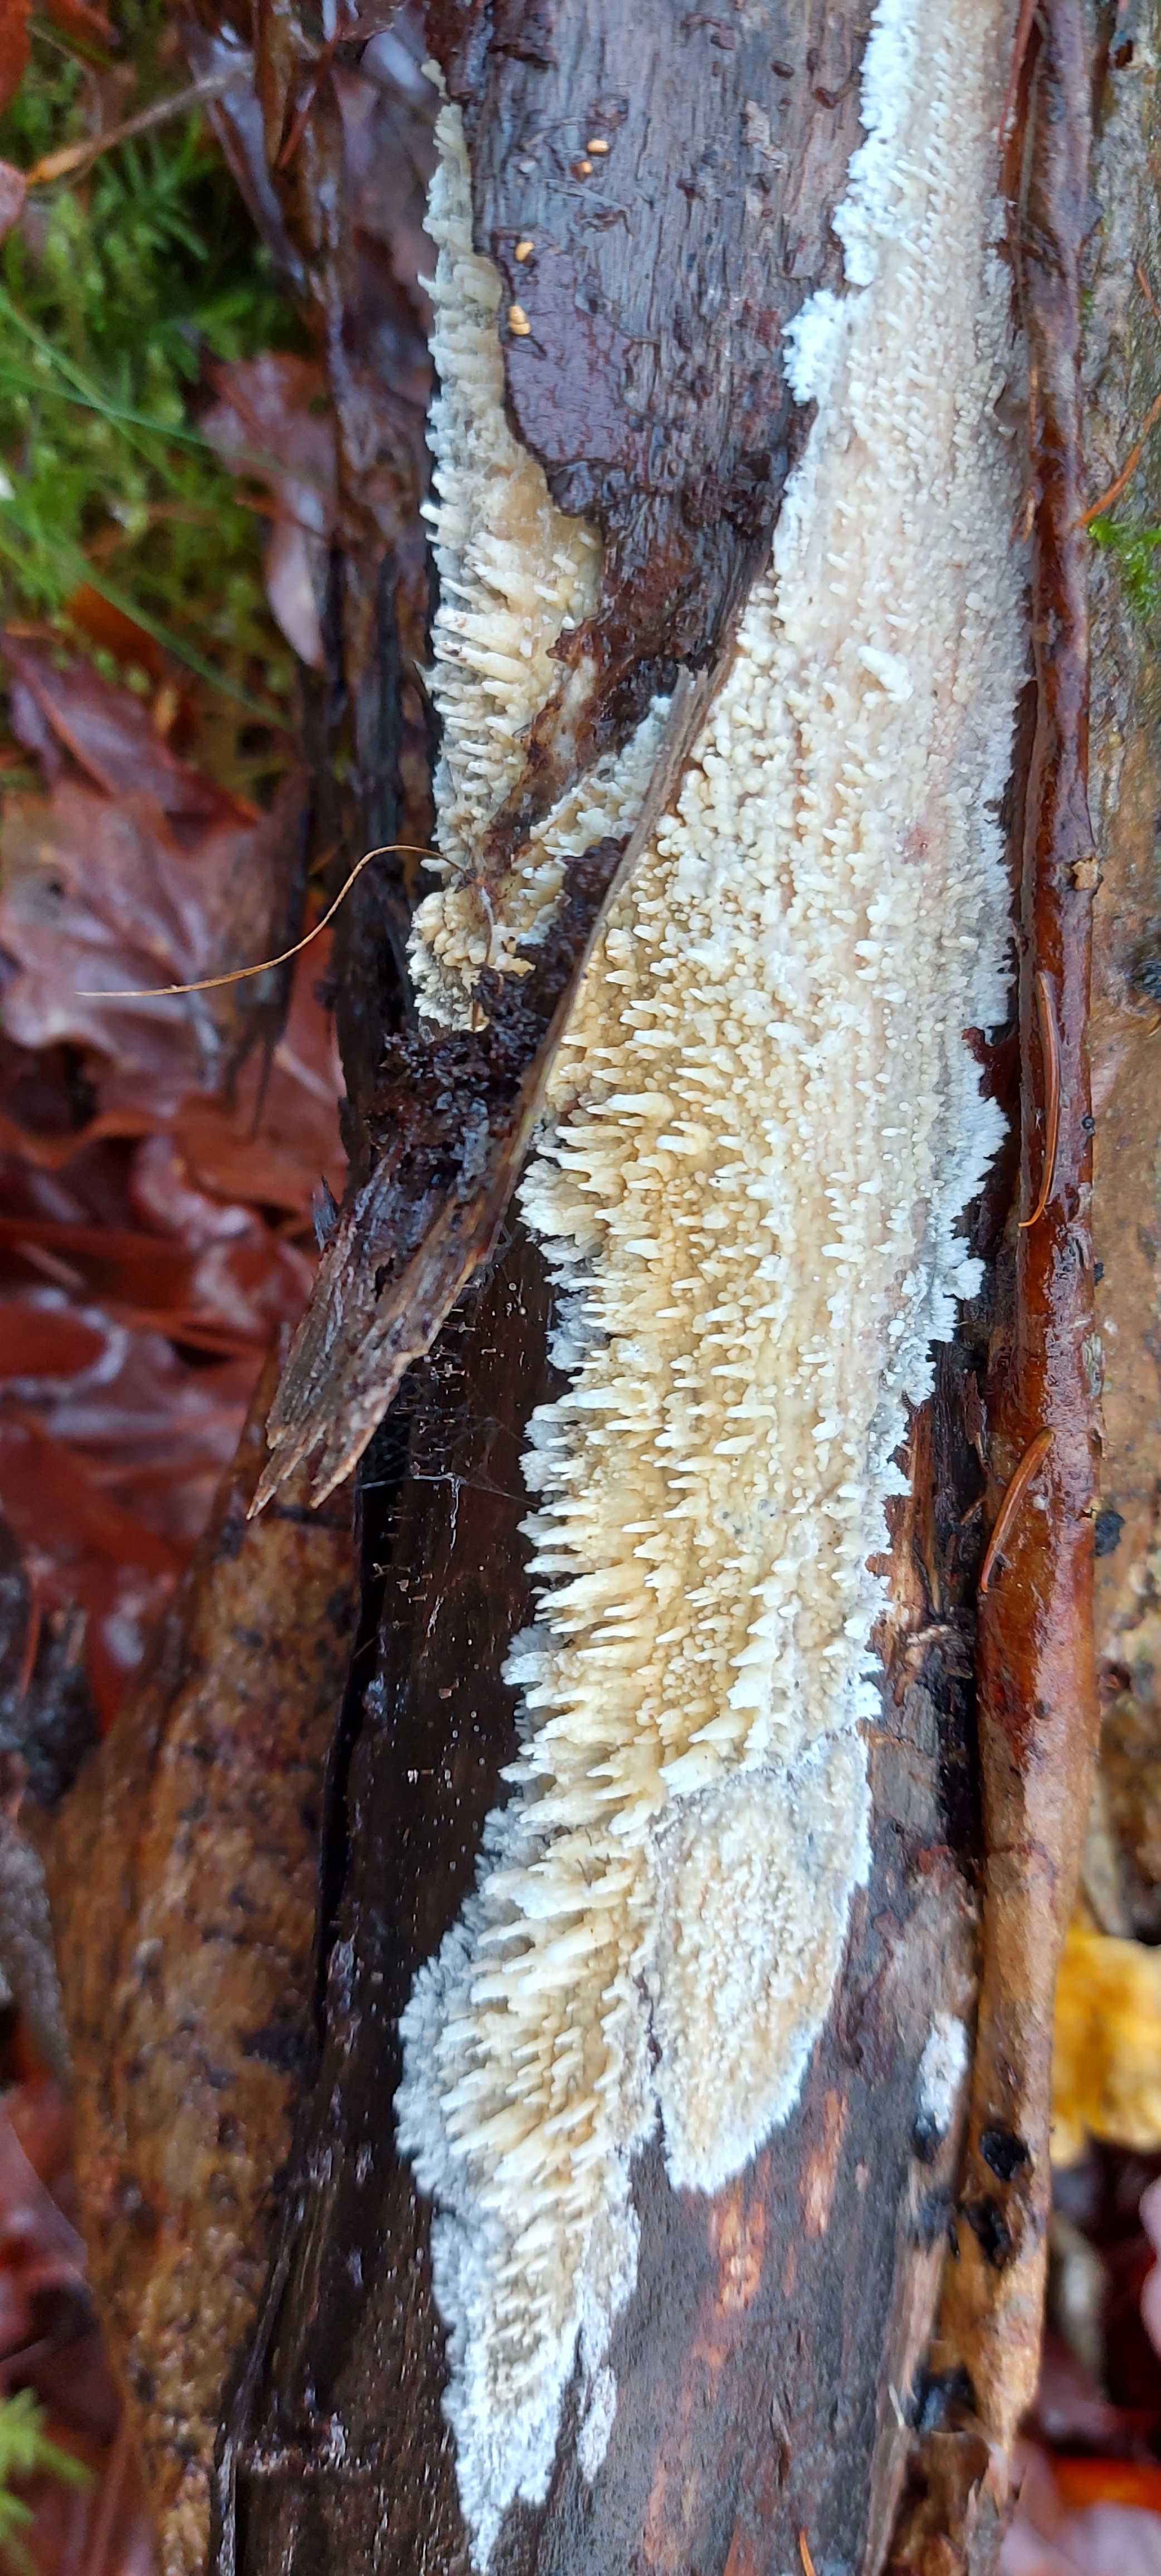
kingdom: Fungi
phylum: Basidiomycota
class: Agaricomycetes
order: Hymenochaetales
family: Schizoporaceae
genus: Xylodon
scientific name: Xylodon radula
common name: grovtandet kalkskind
